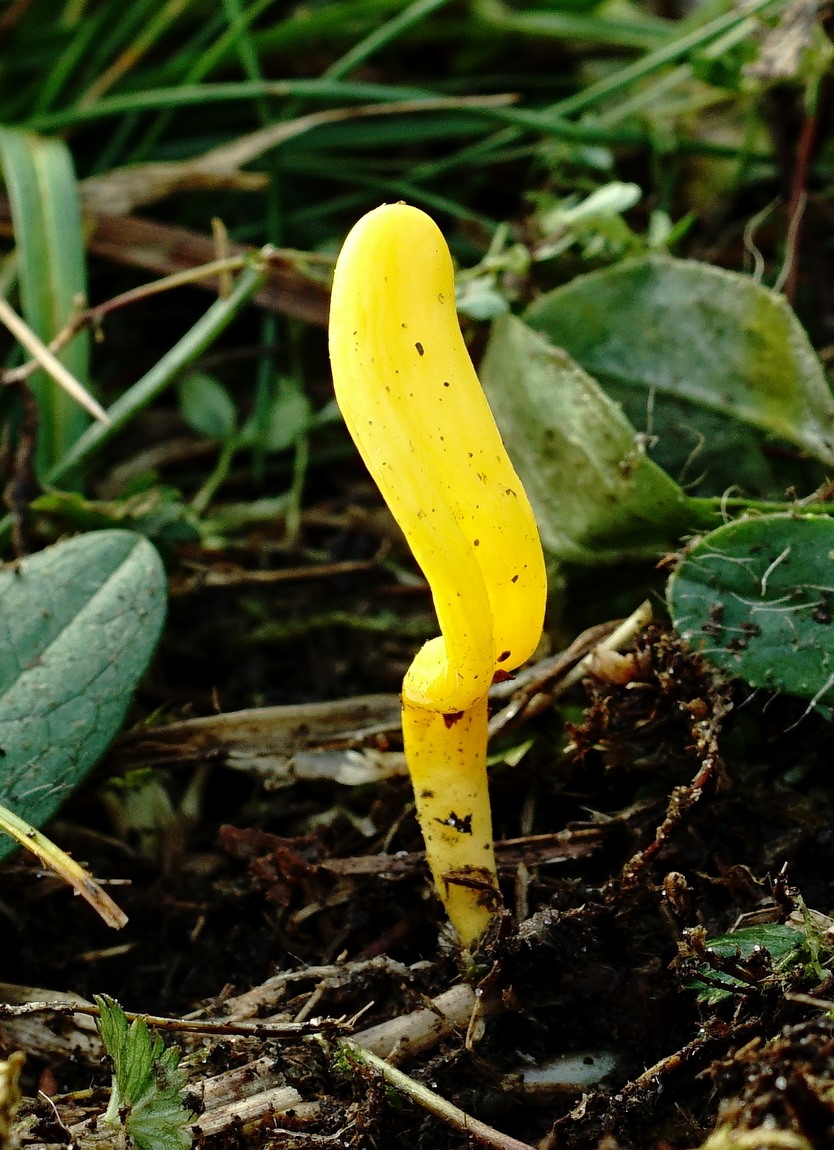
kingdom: Fungi
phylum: Basidiomycota
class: Agaricomycetes
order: Agaricales
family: Clavariaceae
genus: Clavulinopsis
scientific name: Clavulinopsis helvola
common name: orangegul køllesvamp
